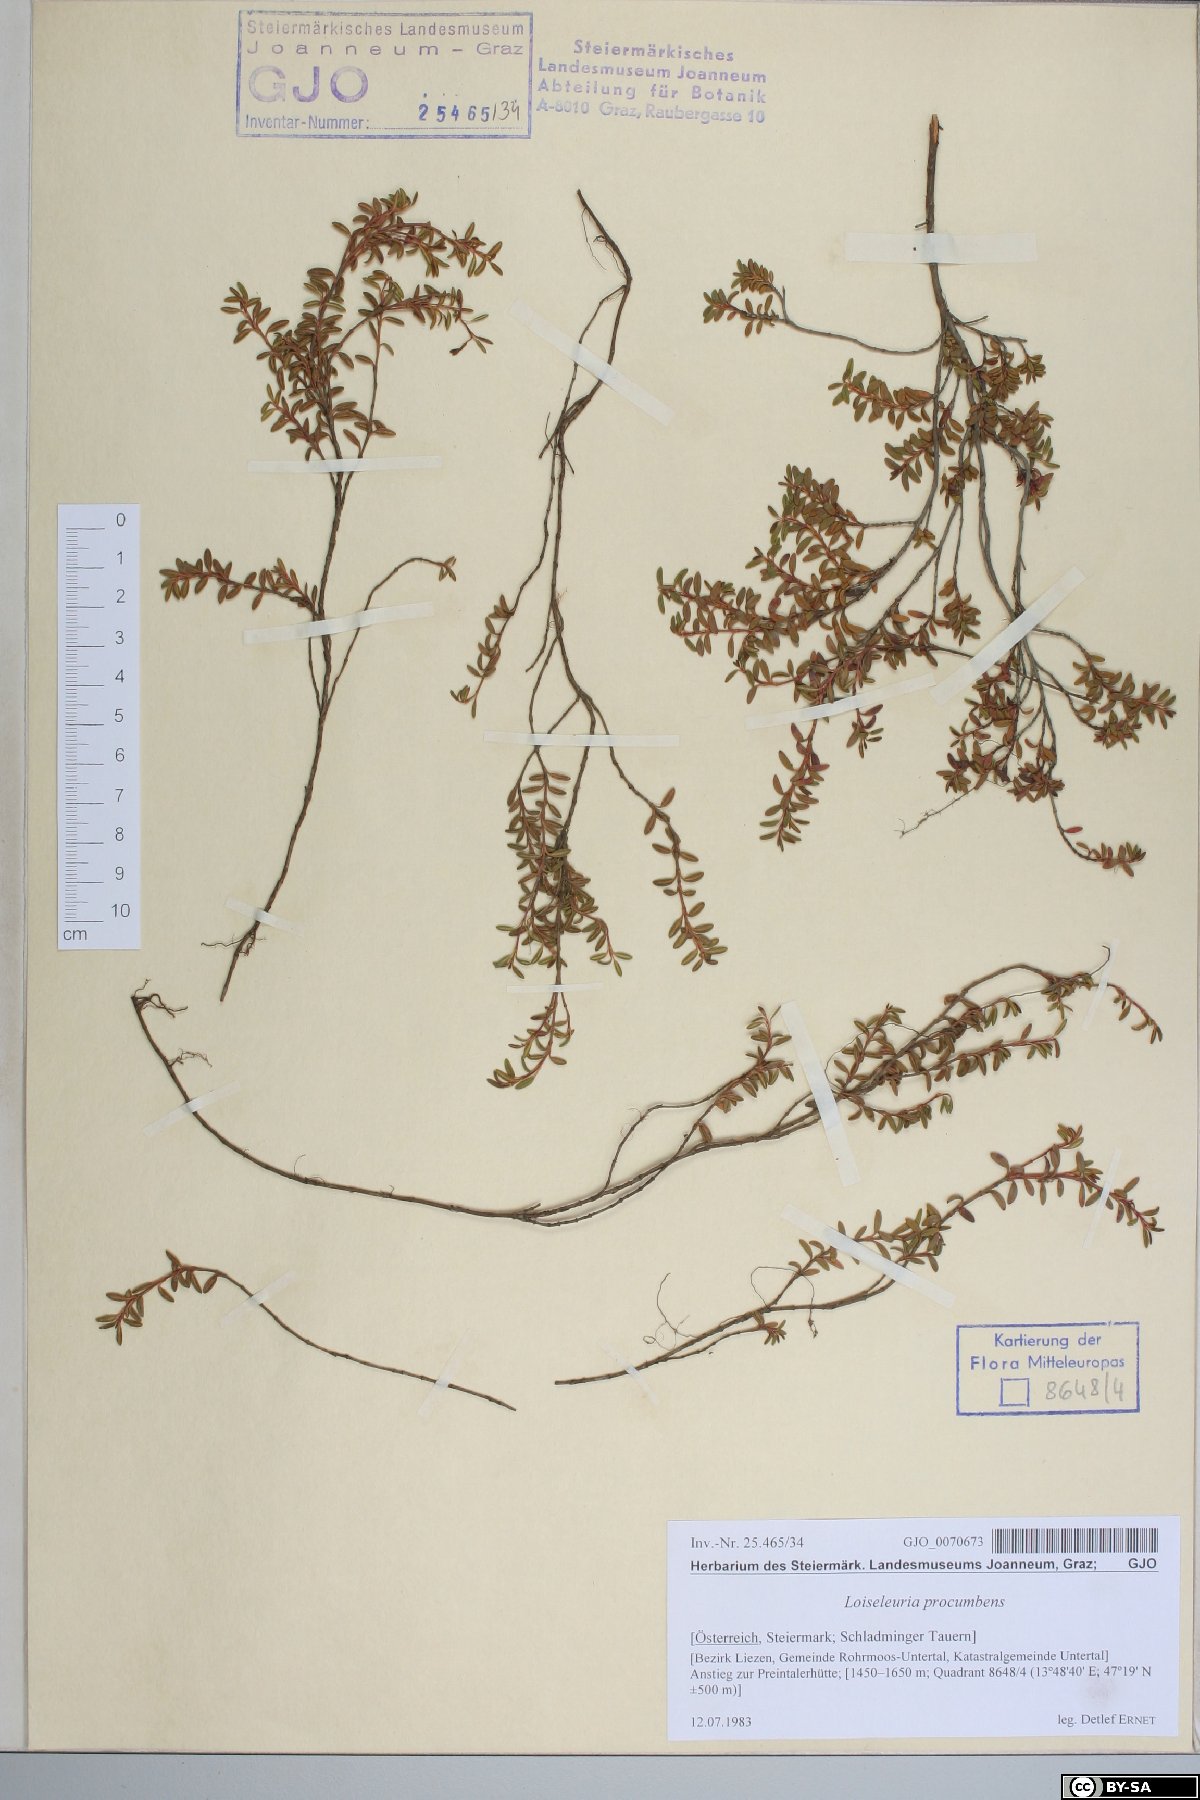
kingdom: Plantae
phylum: Tracheophyta
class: Magnoliopsida
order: Ericales
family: Ericaceae
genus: Kalmia
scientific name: Kalmia procumbens
